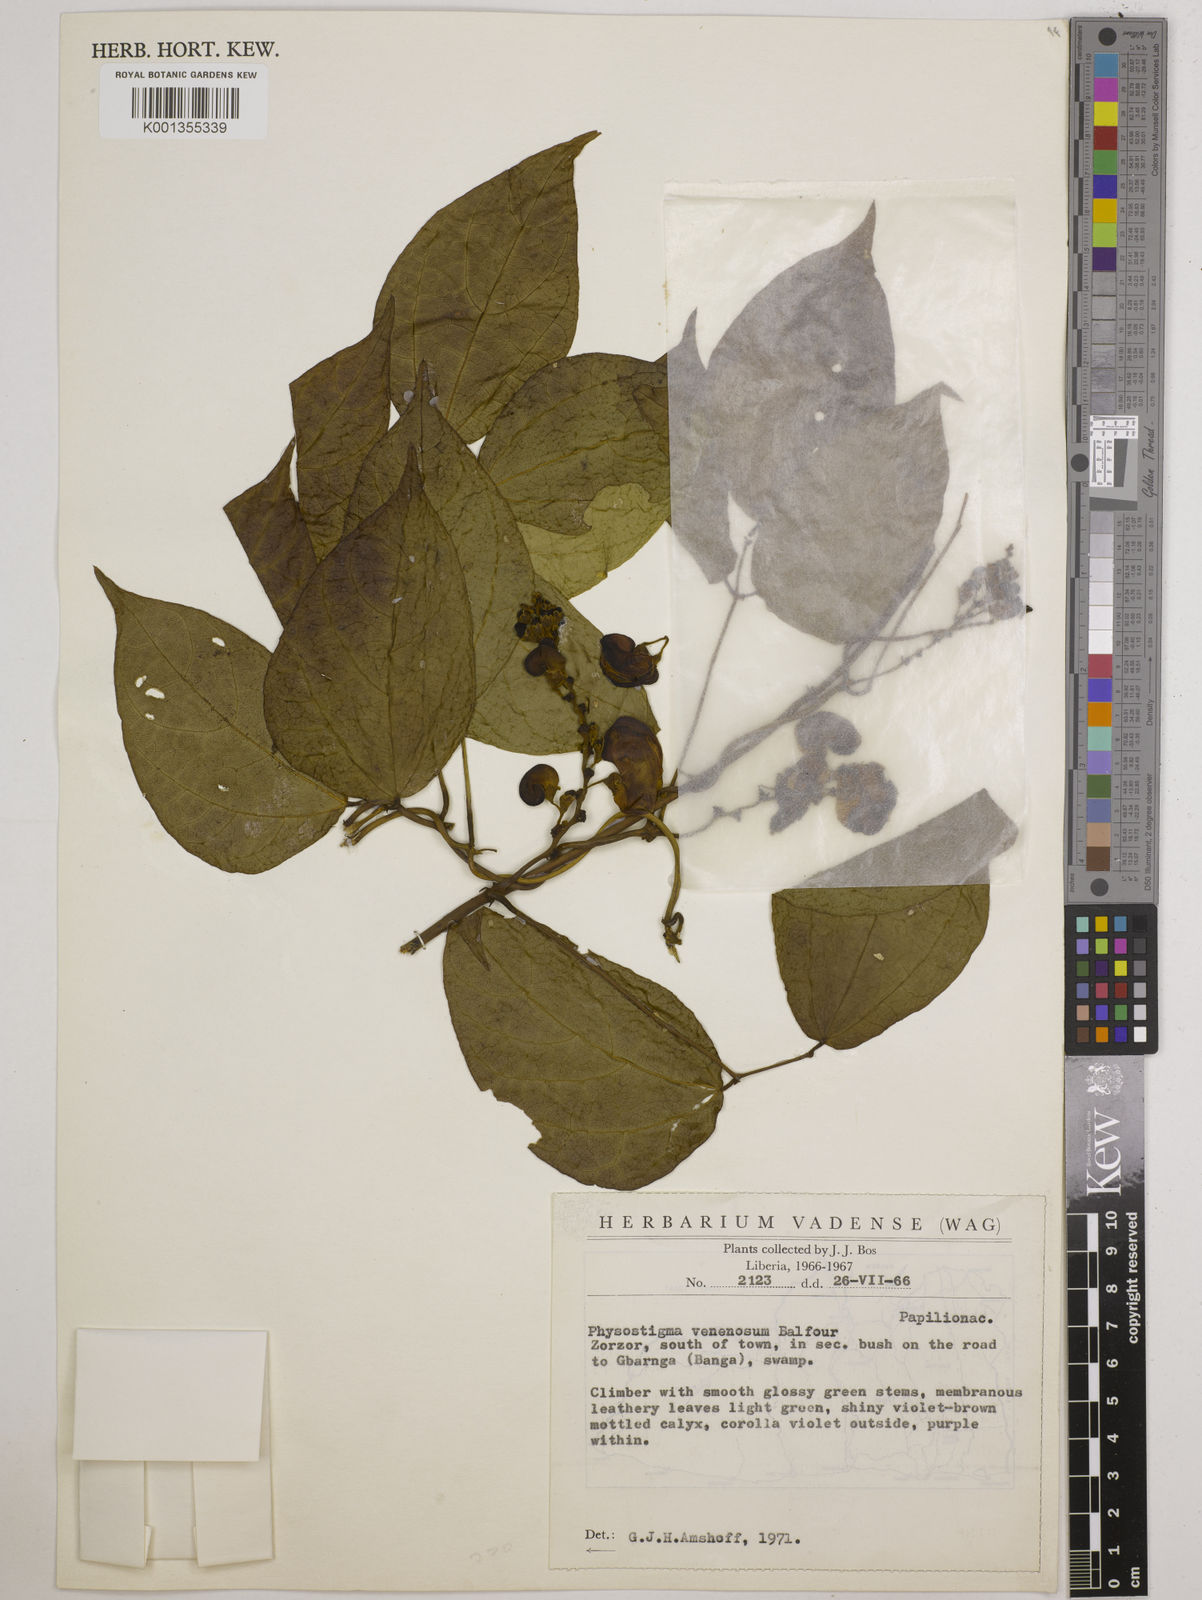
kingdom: Plantae
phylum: Tracheophyta
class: Magnoliopsida
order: Fabales
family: Fabaceae
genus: Physostigma
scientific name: Physostigma venenosum
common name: Calabar-bean
